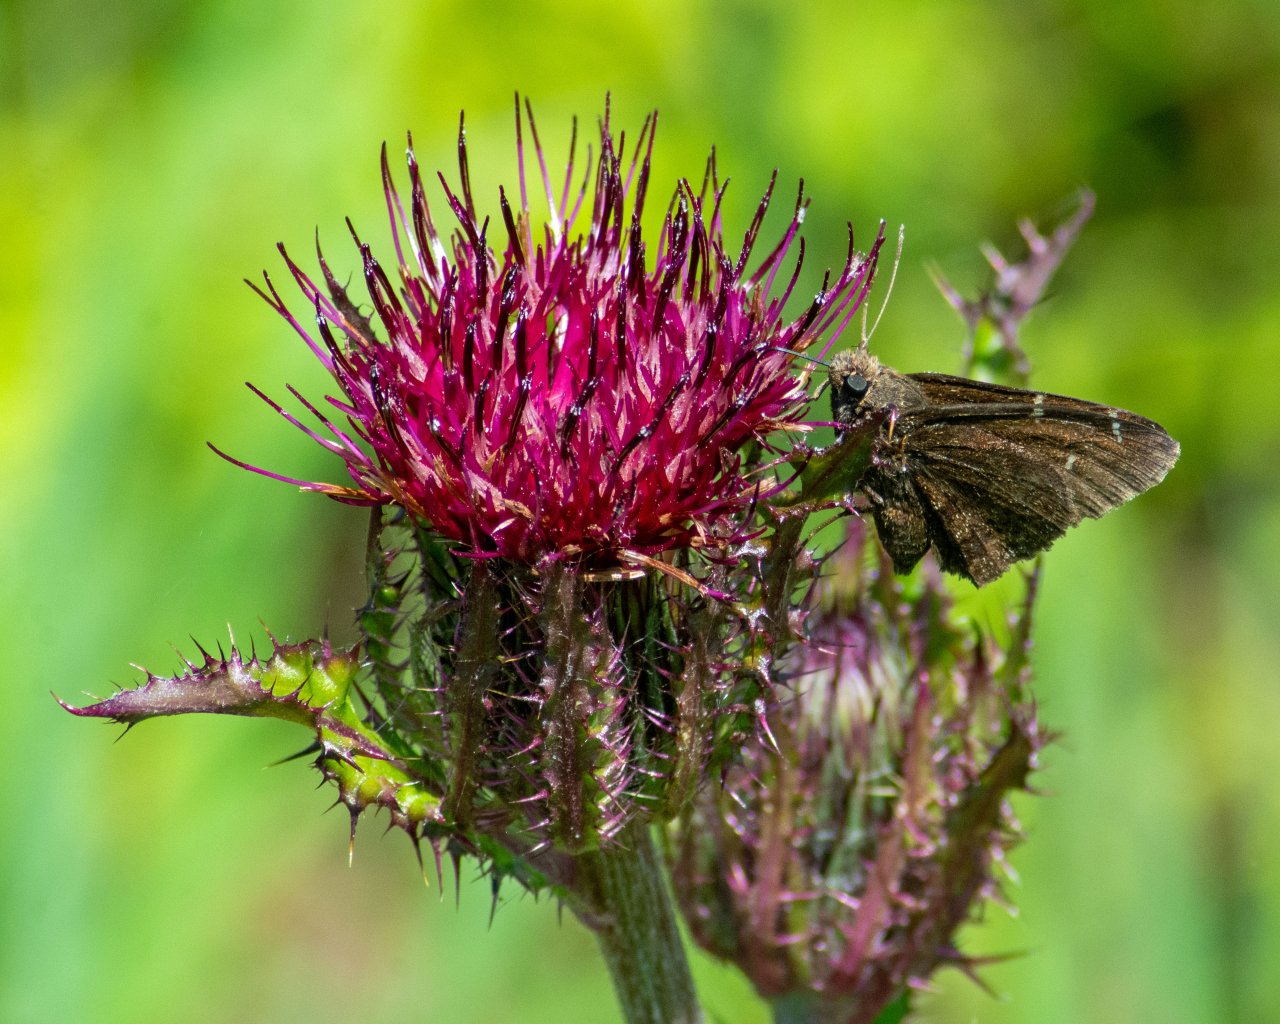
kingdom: Animalia
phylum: Arthropoda
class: Insecta
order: Lepidoptera
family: Hesperiidae
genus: Autochton
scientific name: Autochton
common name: Northern Cloudywing
